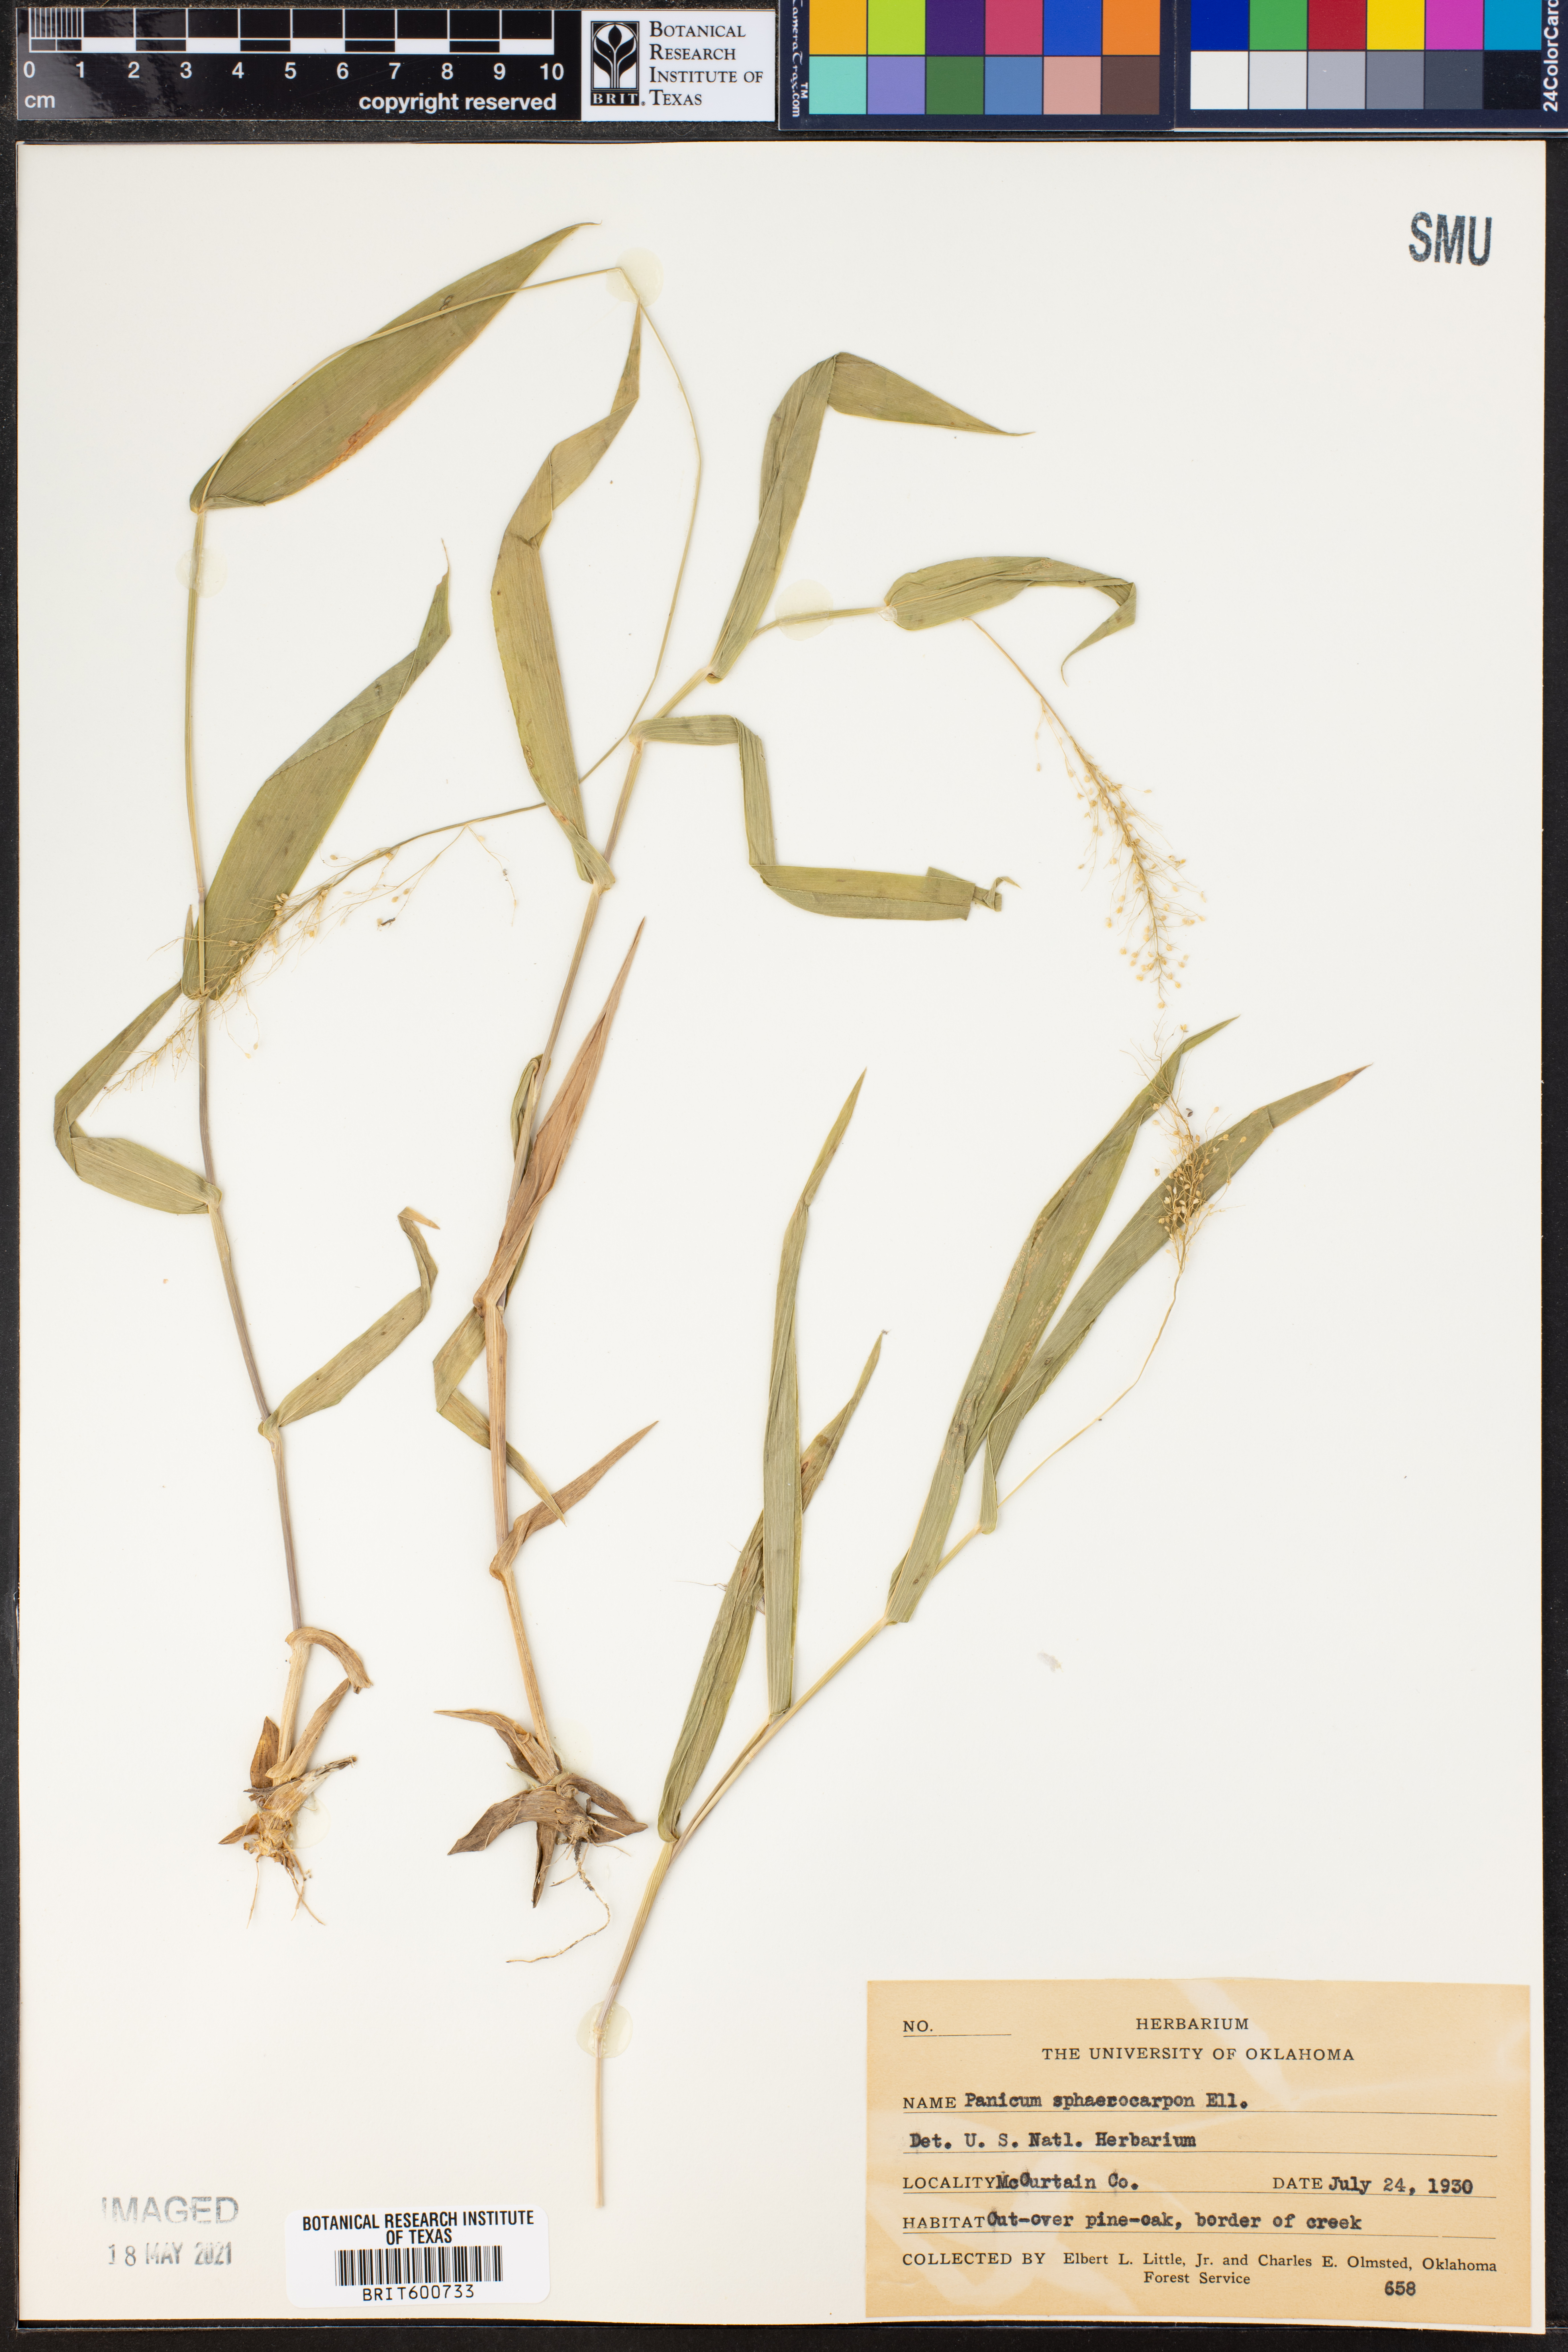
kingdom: Plantae
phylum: Tracheophyta
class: Liliopsida
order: Poales
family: Poaceae
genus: Dichanthelium
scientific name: Dichanthelium sphaerocarpon
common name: Round-fruited panicgrass
